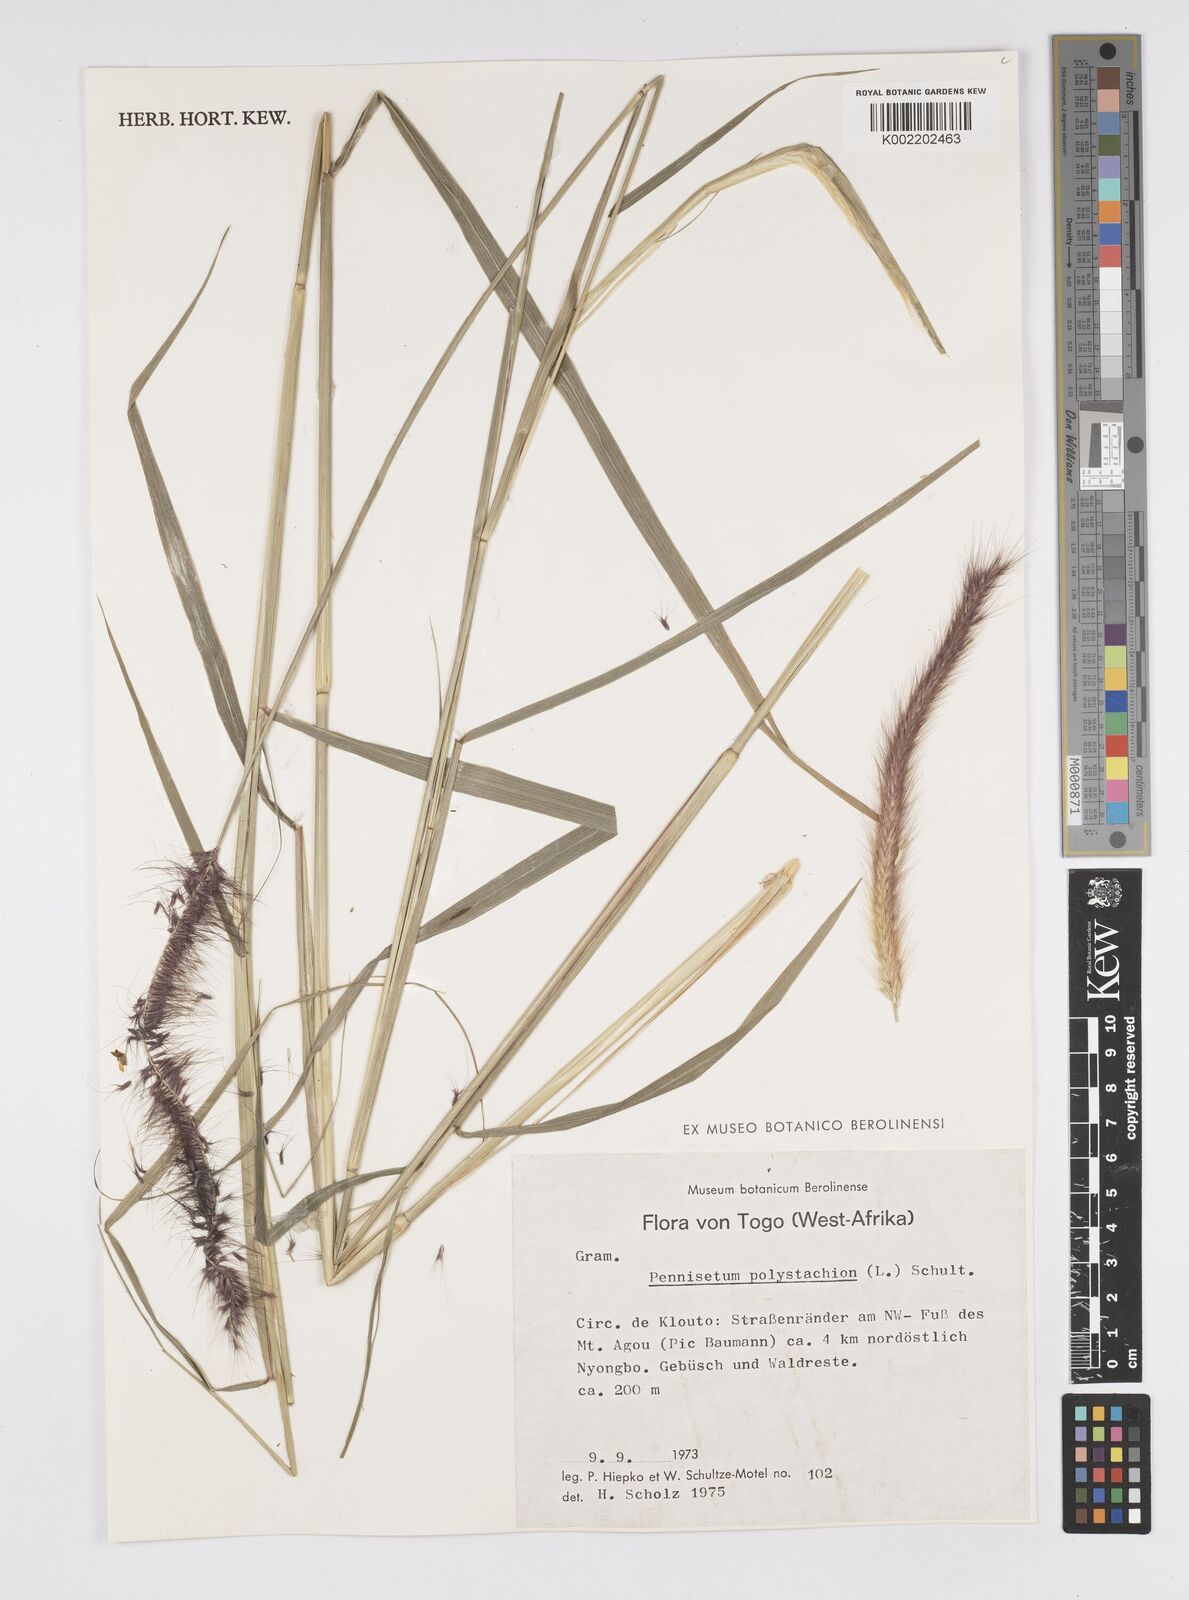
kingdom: Plantae
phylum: Tracheophyta
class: Liliopsida
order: Poales
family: Poaceae
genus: Setaria
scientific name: Setaria parviflora
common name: Knotroot bristle-grass
